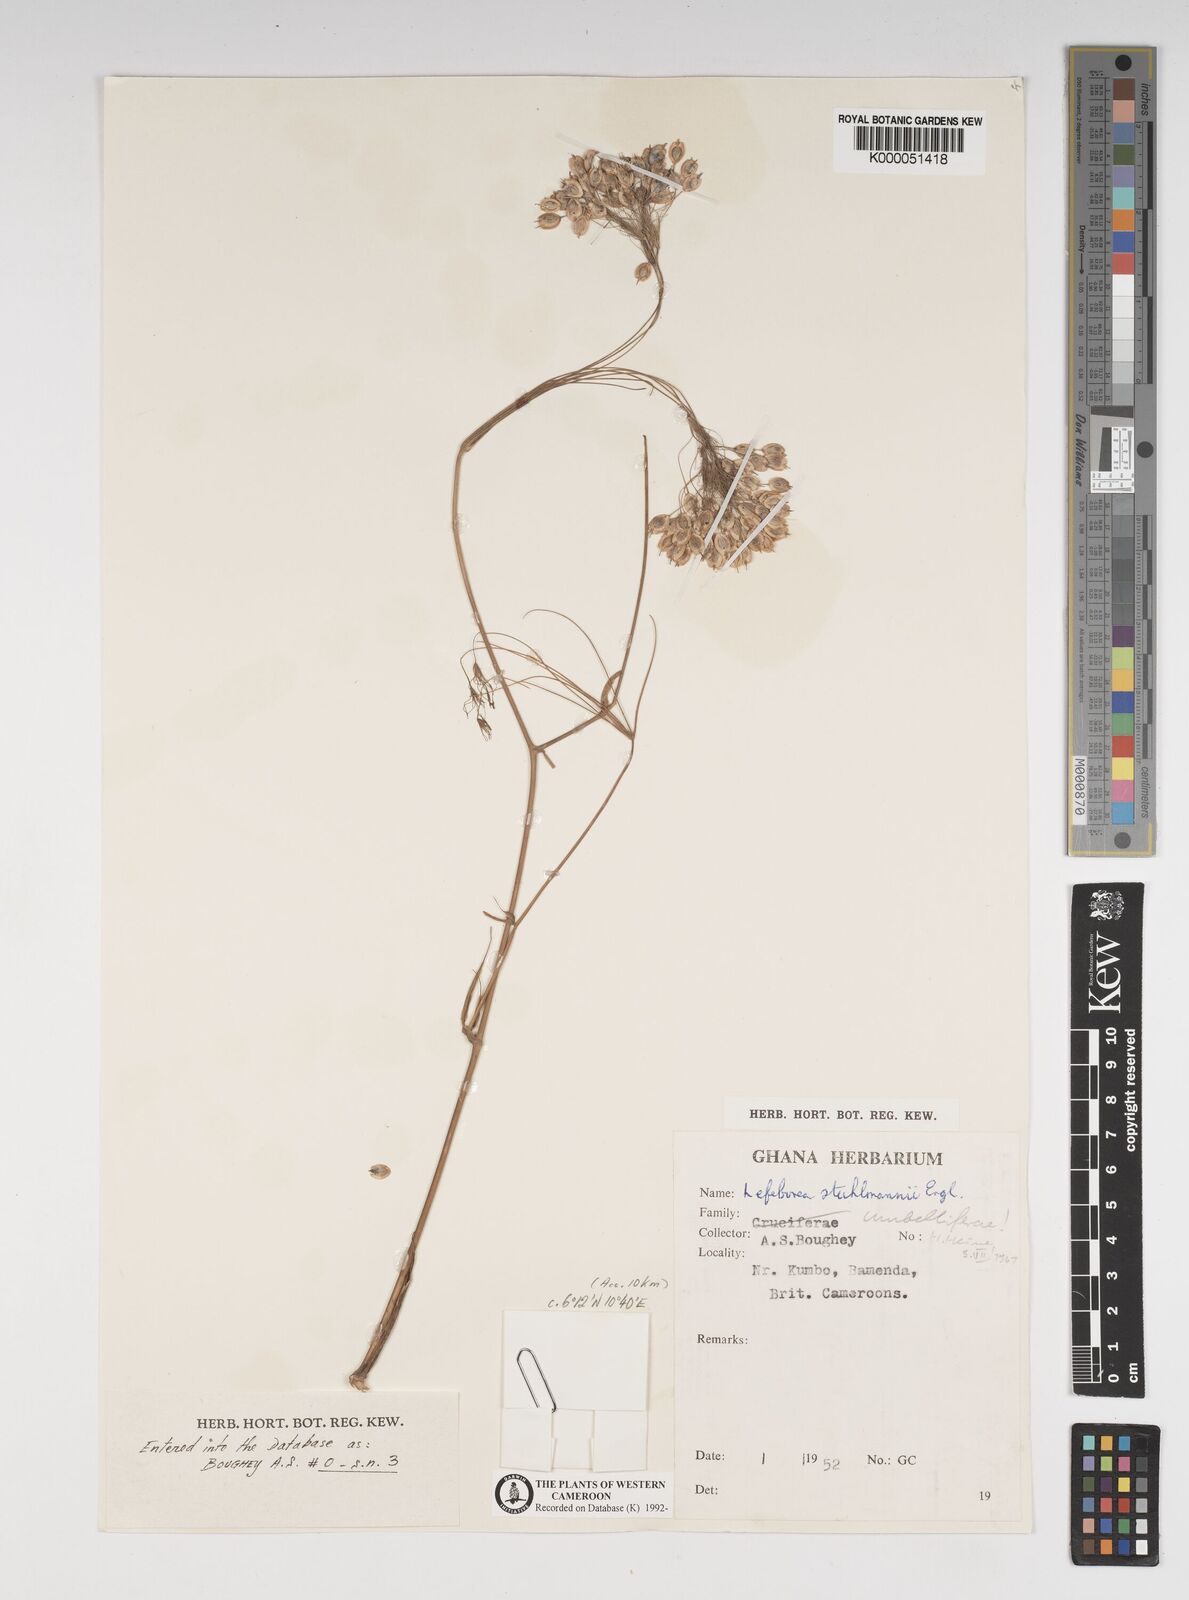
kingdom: Plantae
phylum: Tracheophyta
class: Magnoliopsida
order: Apiales
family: Apiaceae
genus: Lefebvrea
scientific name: Lefebvrea
